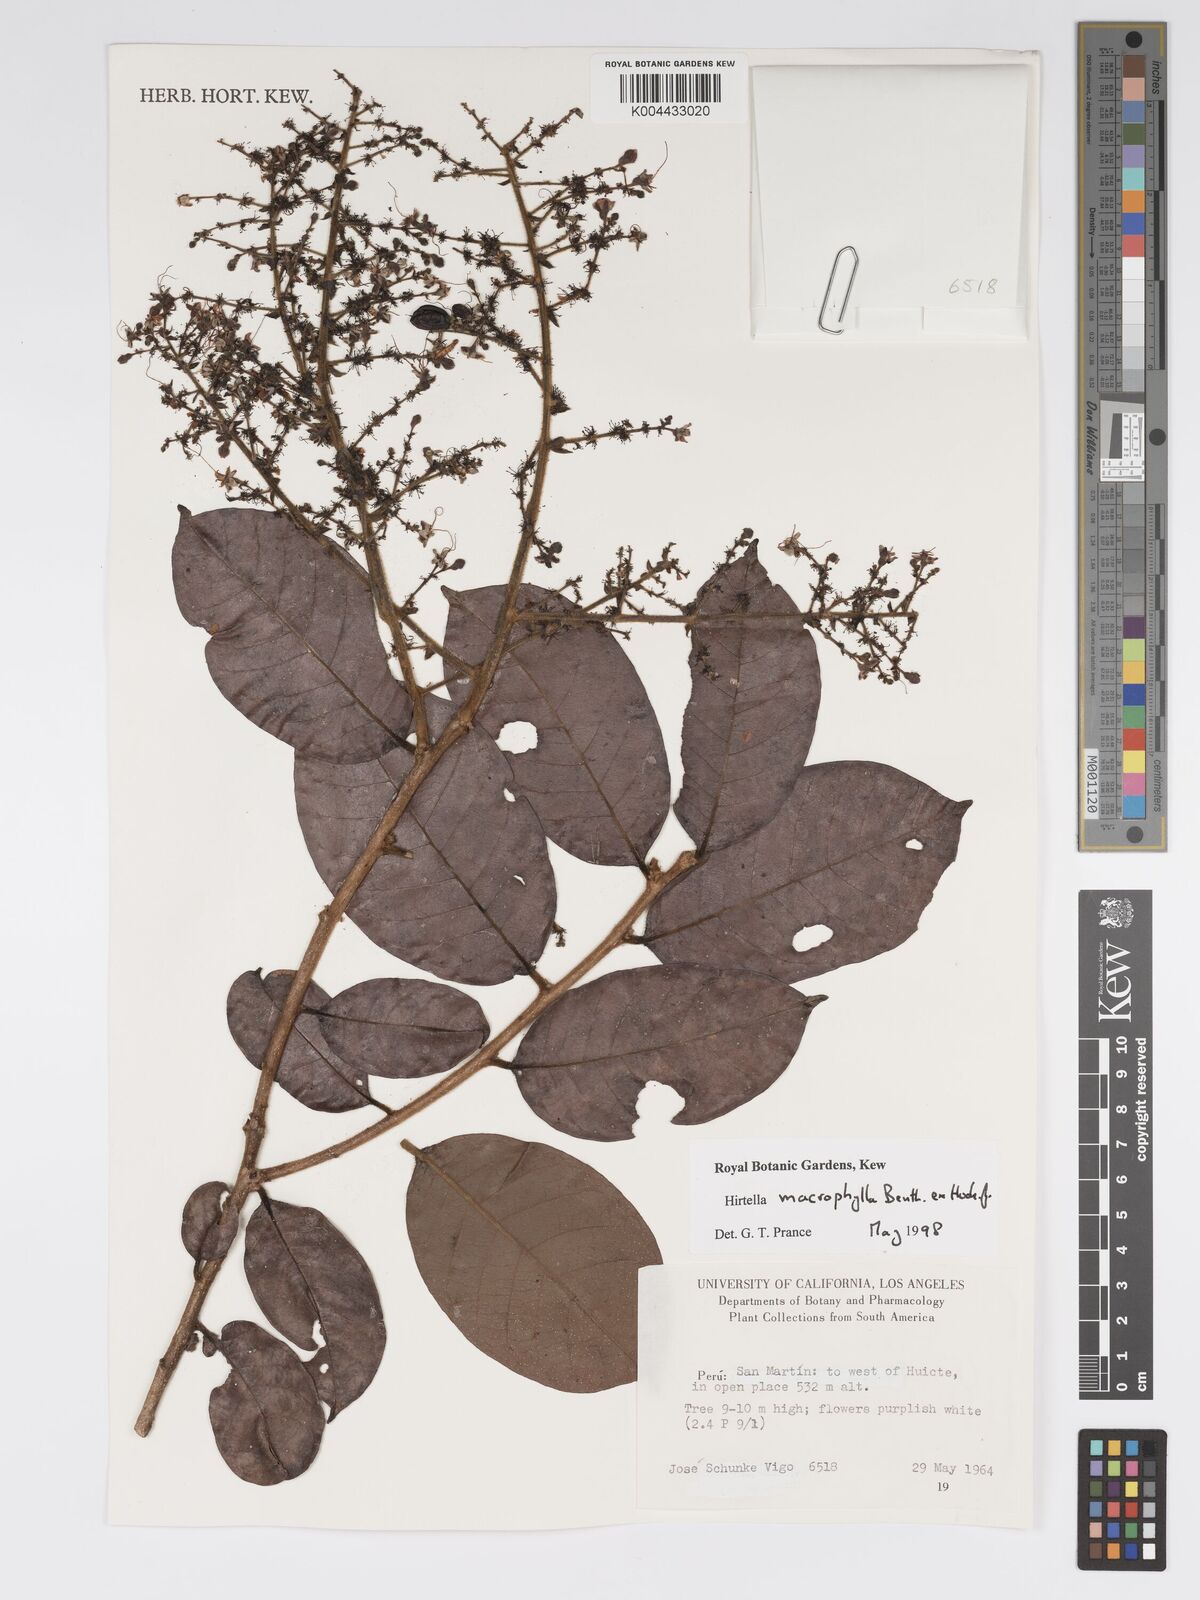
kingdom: Plantae
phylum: Tracheophyta
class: Magnoliopsida
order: Malpighiales
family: Chrysobalanaceae
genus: Hirtella
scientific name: Hirtella macrophylla
